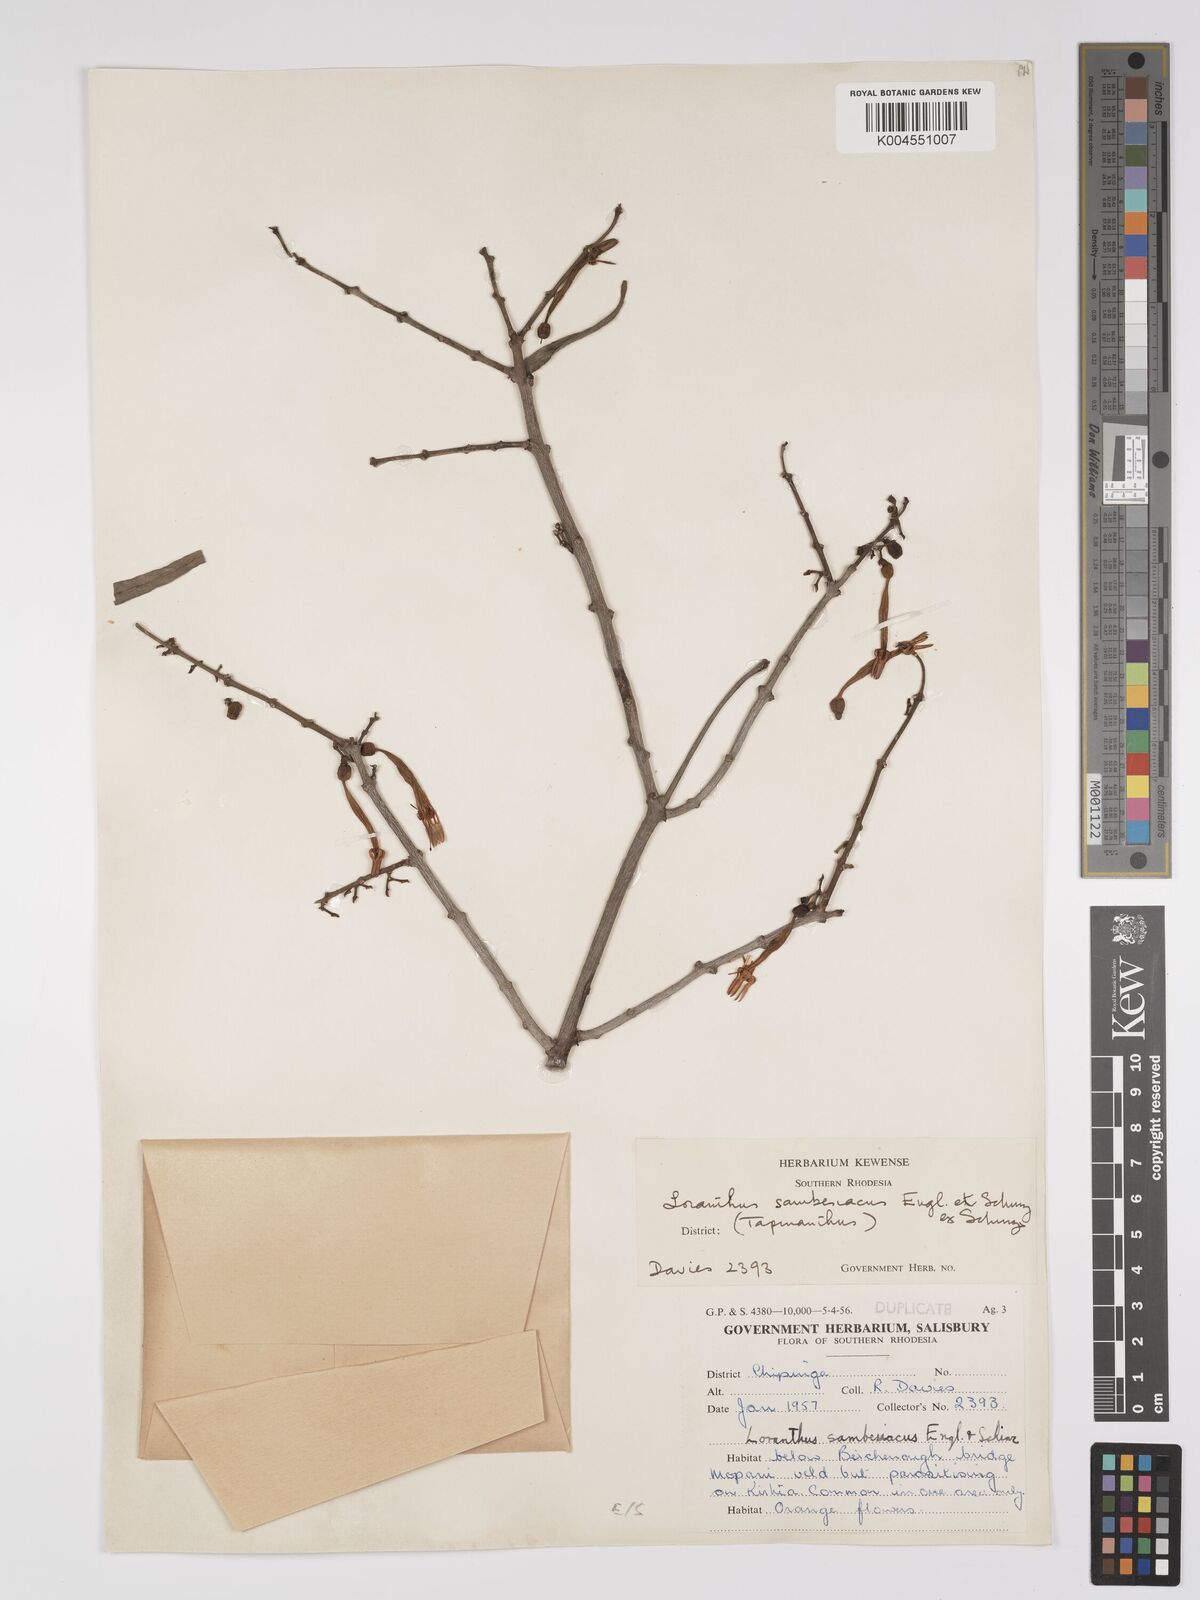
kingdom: Plantae
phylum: Tracheophyta
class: Magnoliopsida
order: Santalales
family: Loranthaceae
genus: Agelanthus
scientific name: Agelanthus sambesiacus
